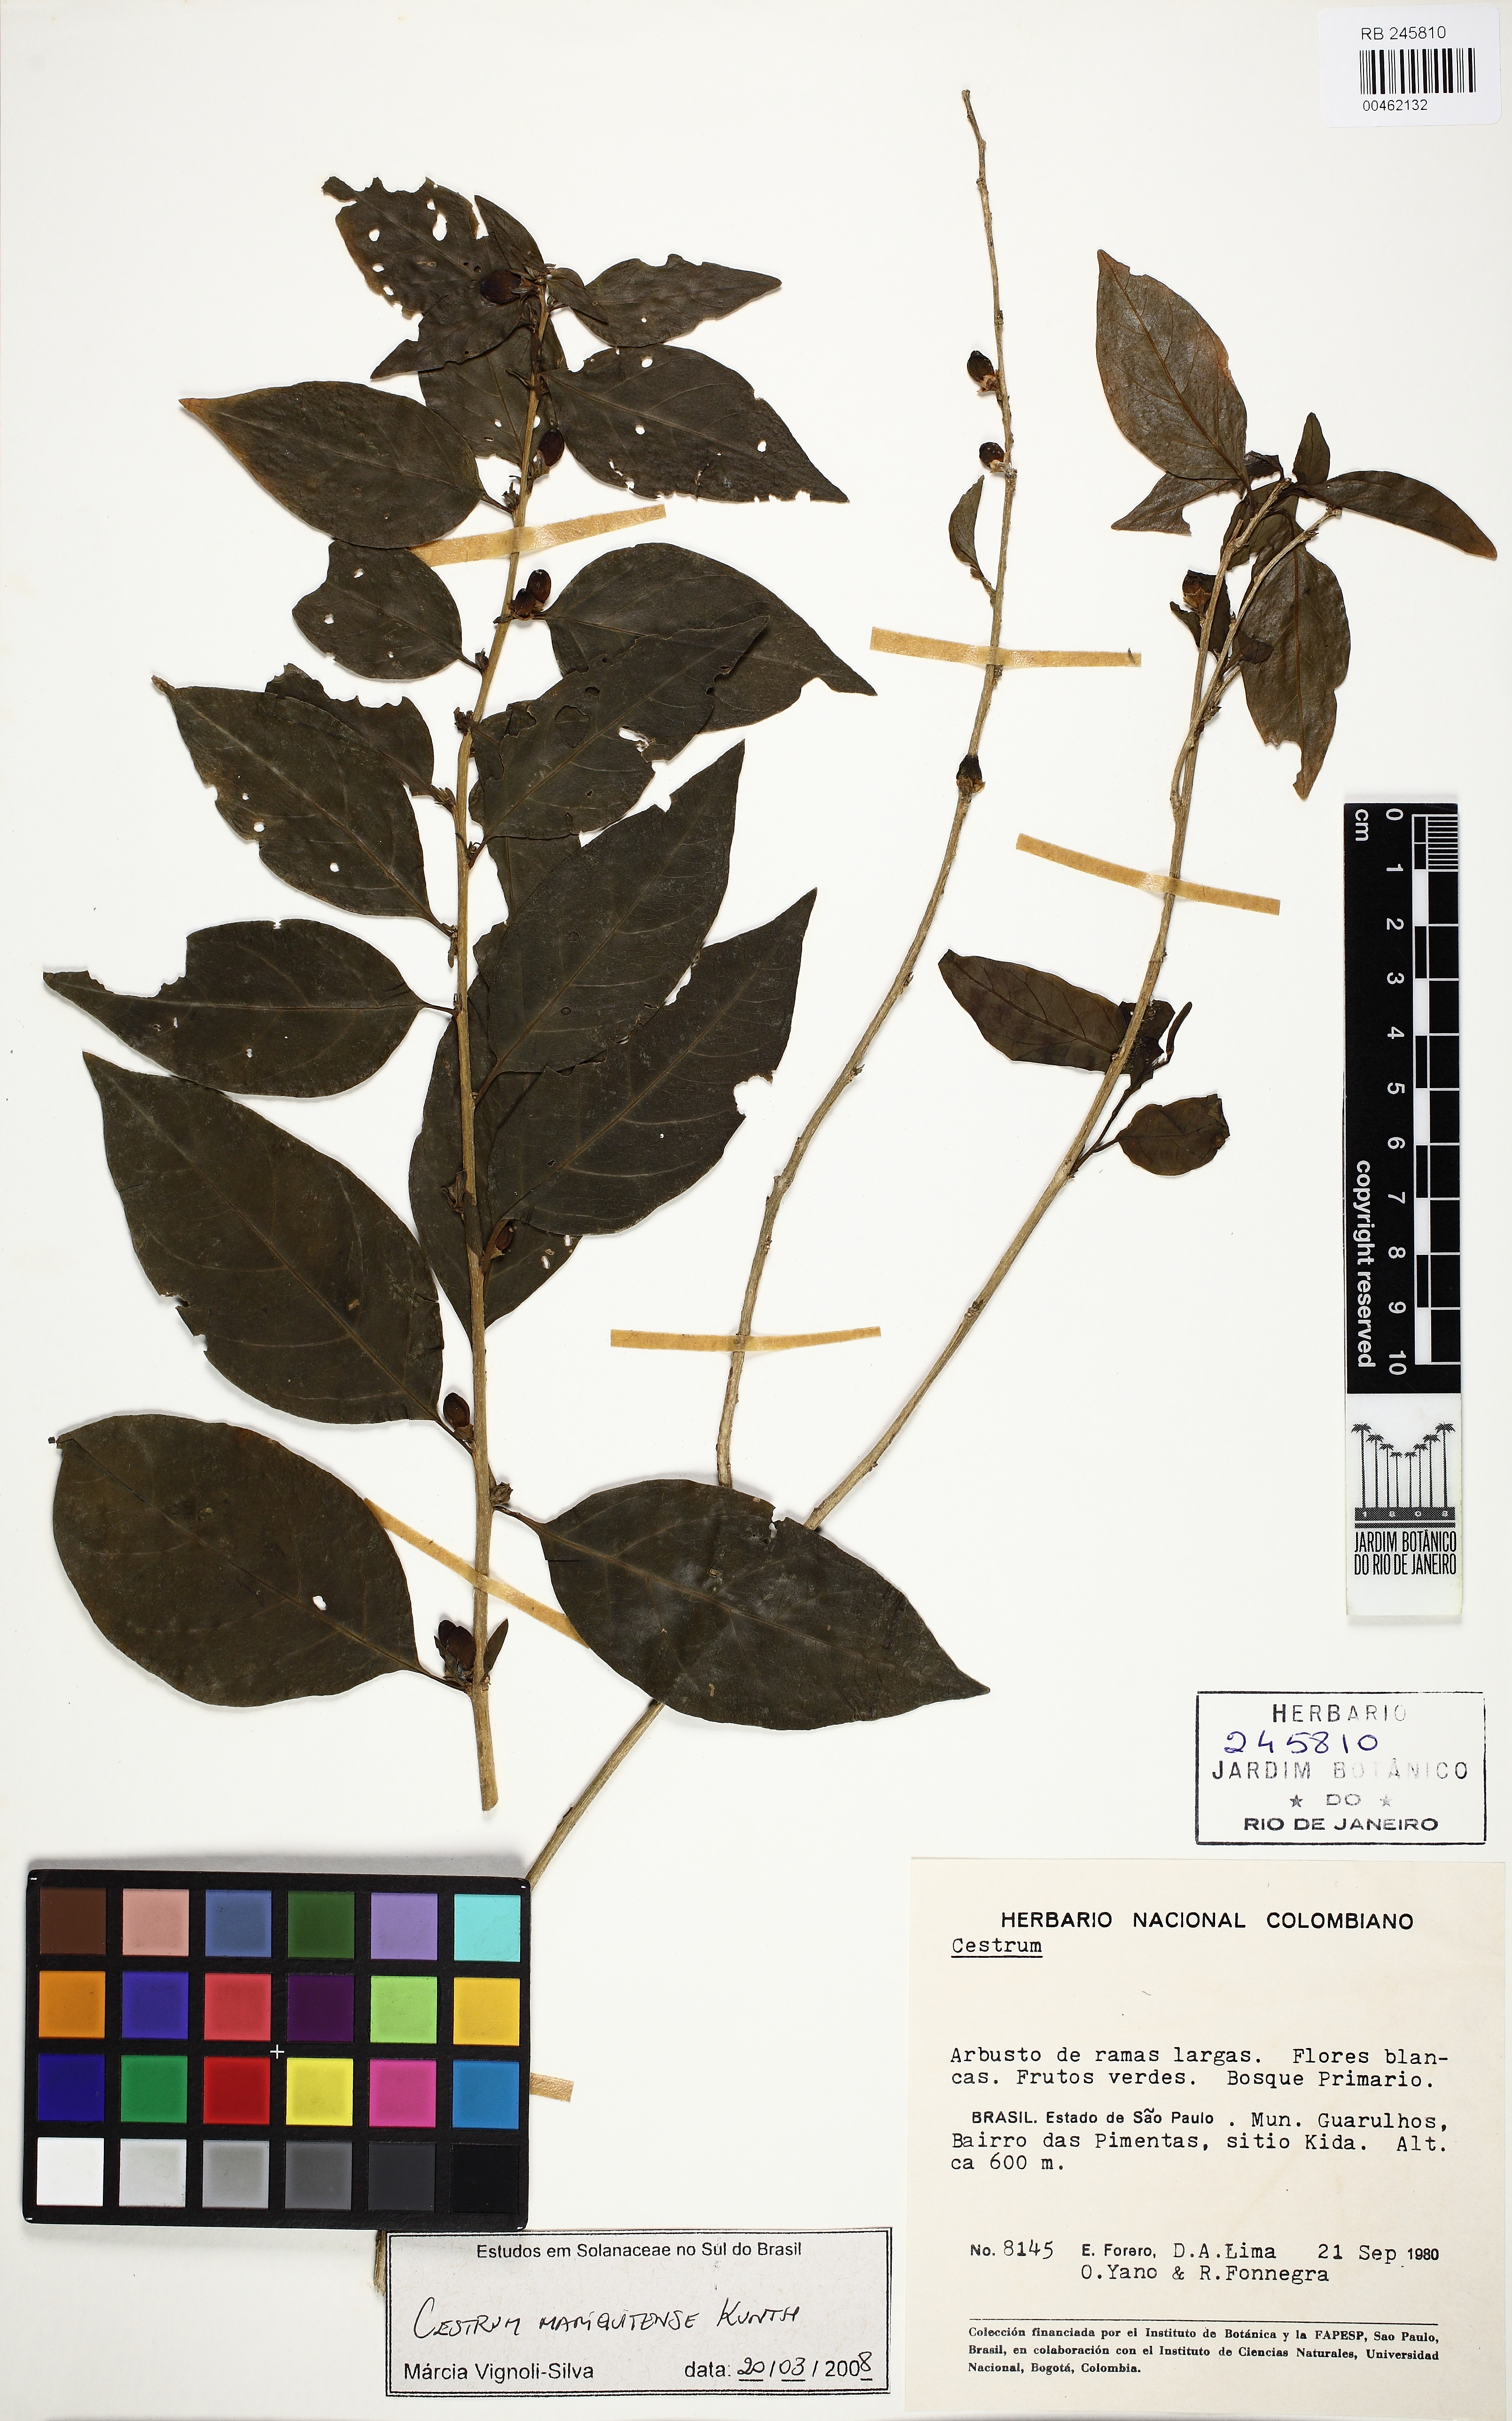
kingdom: Plantae
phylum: Tracheophyta
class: Magnoliopsida
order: Solanales
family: Solanaceae
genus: Cestrum
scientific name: Cestrum mariquitense
